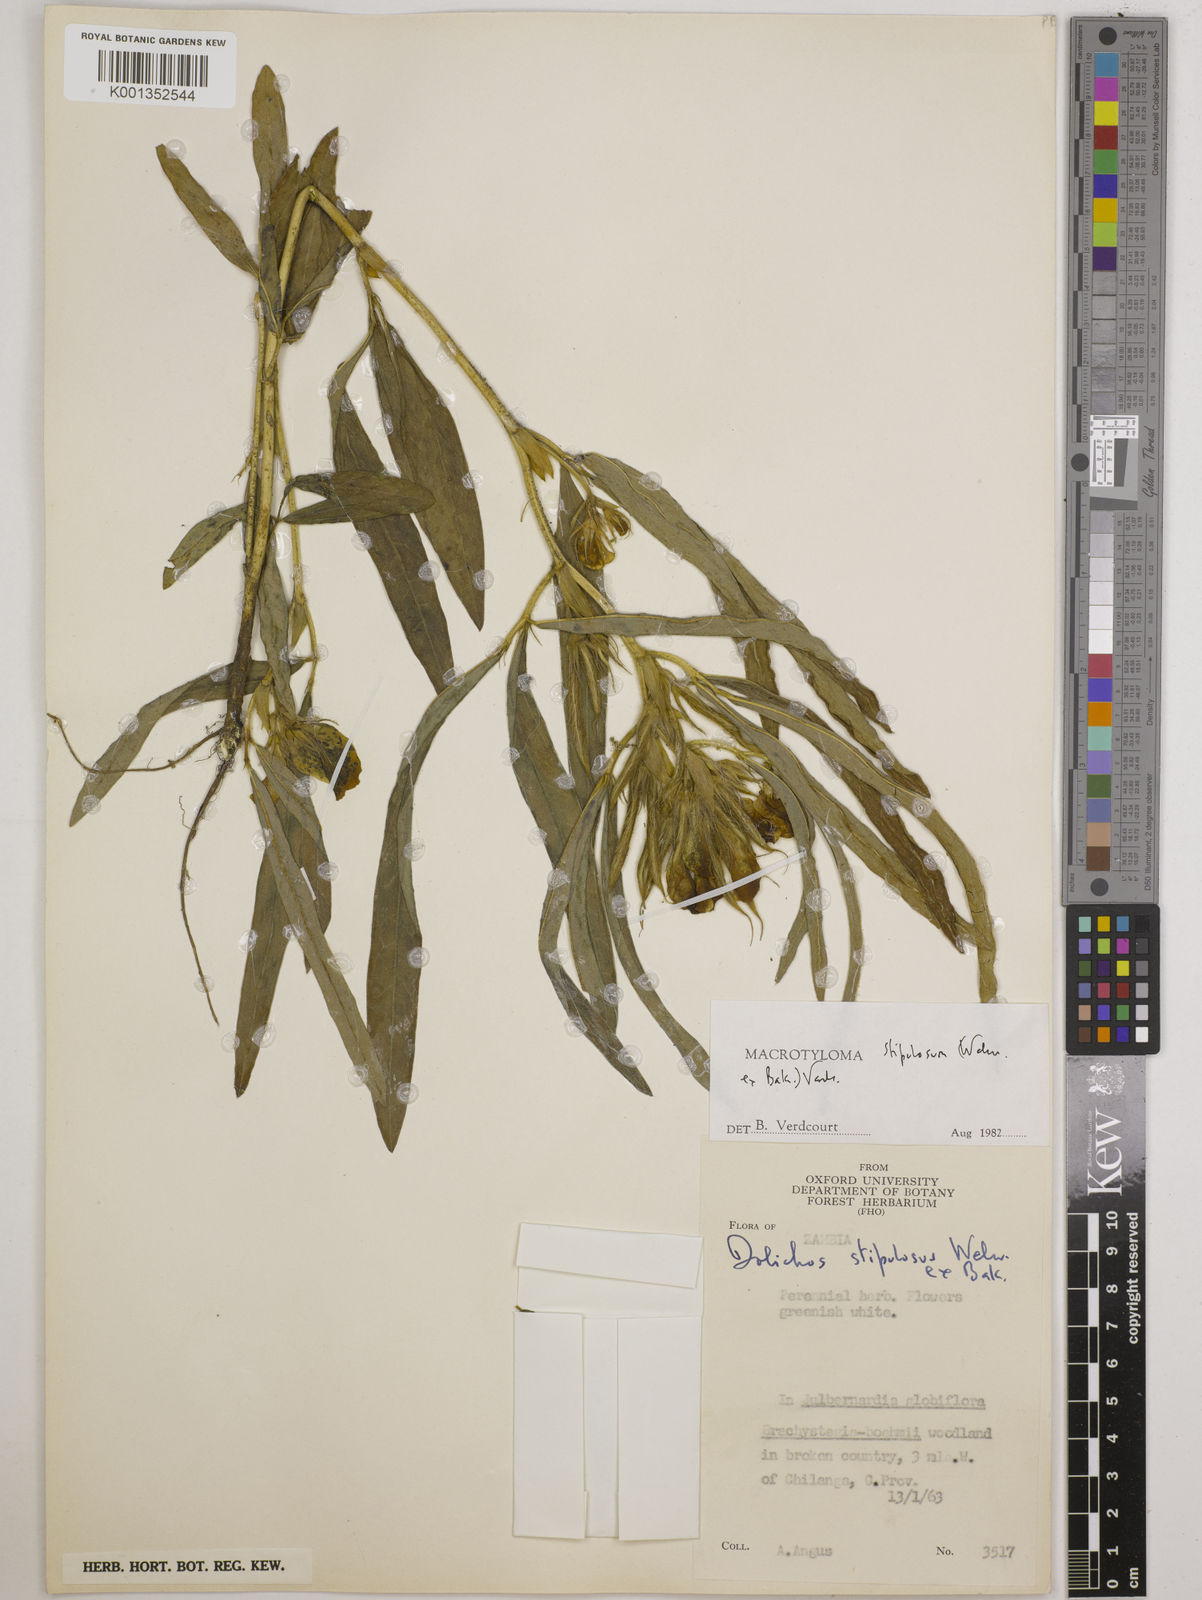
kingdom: Plantae
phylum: Tracheophyta
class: Magnoliopsida
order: Fabales
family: Fabaceae
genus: Macrotyloma
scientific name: Macrotyloma stipulosum
